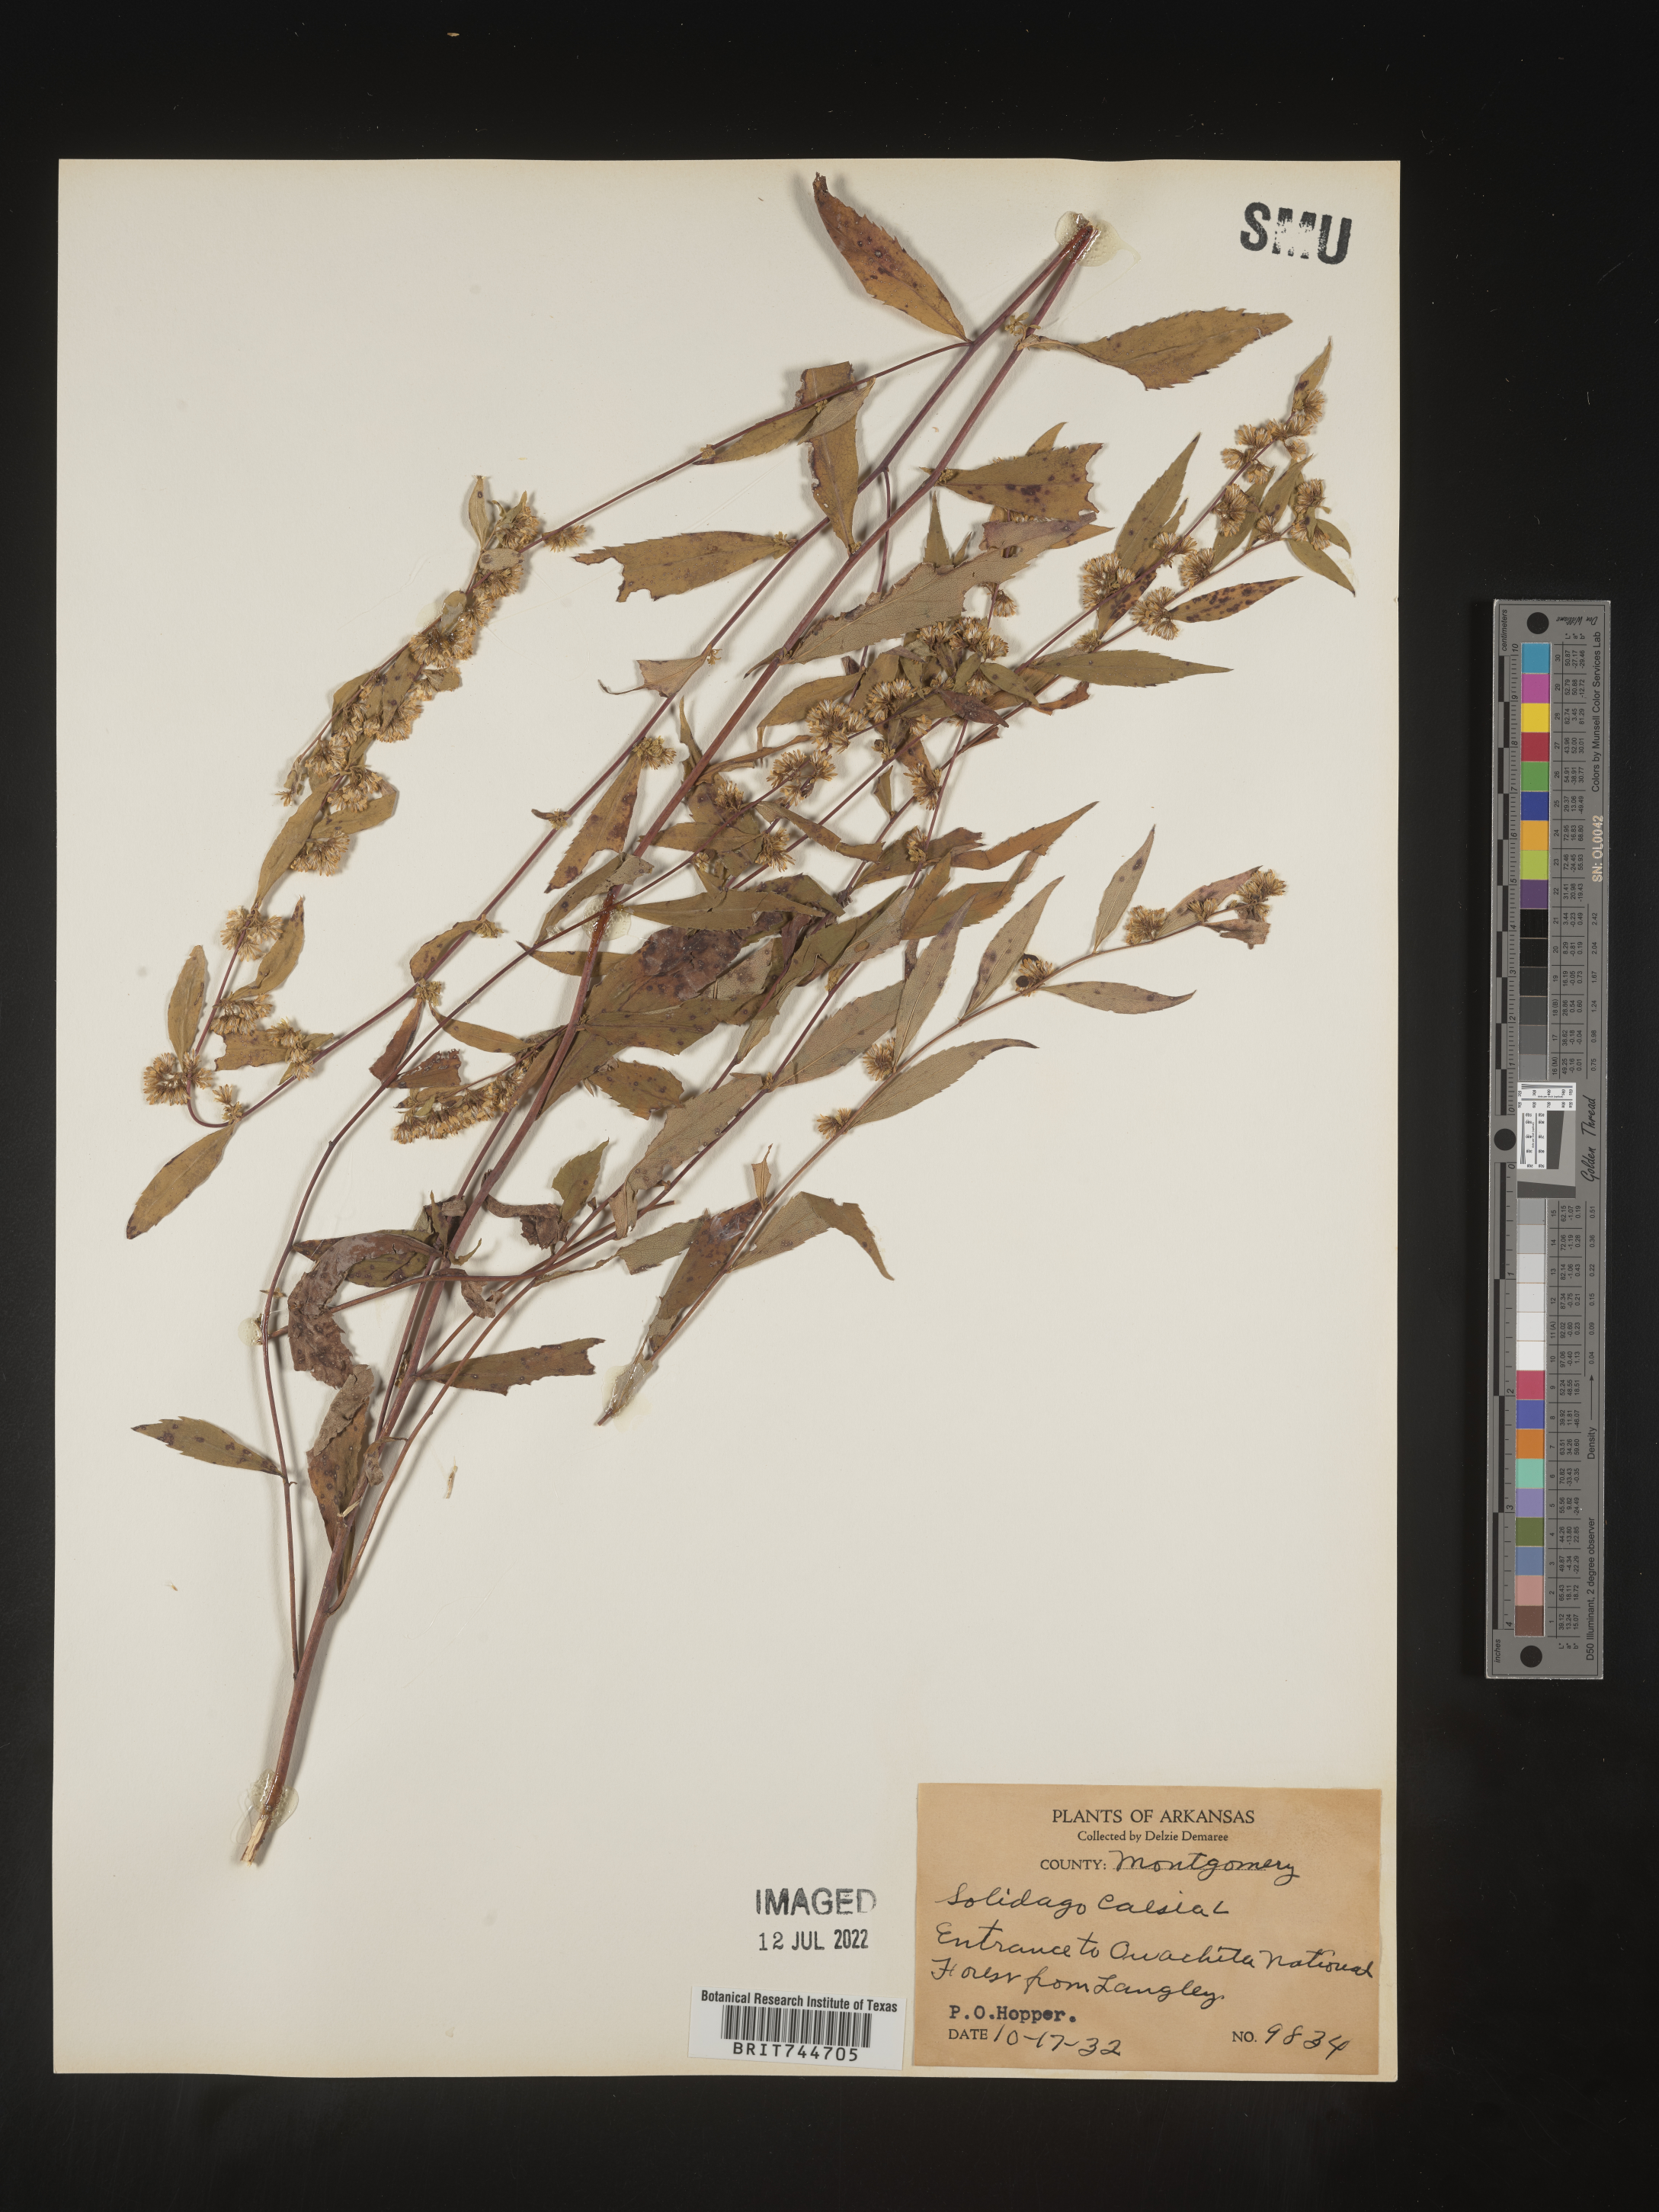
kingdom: Plantae
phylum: Tracheophyta
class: Magnoliopsida
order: Asterales
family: Asteraceae
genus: Solidago
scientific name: Solidago caesia
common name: Woodland goldenrod
